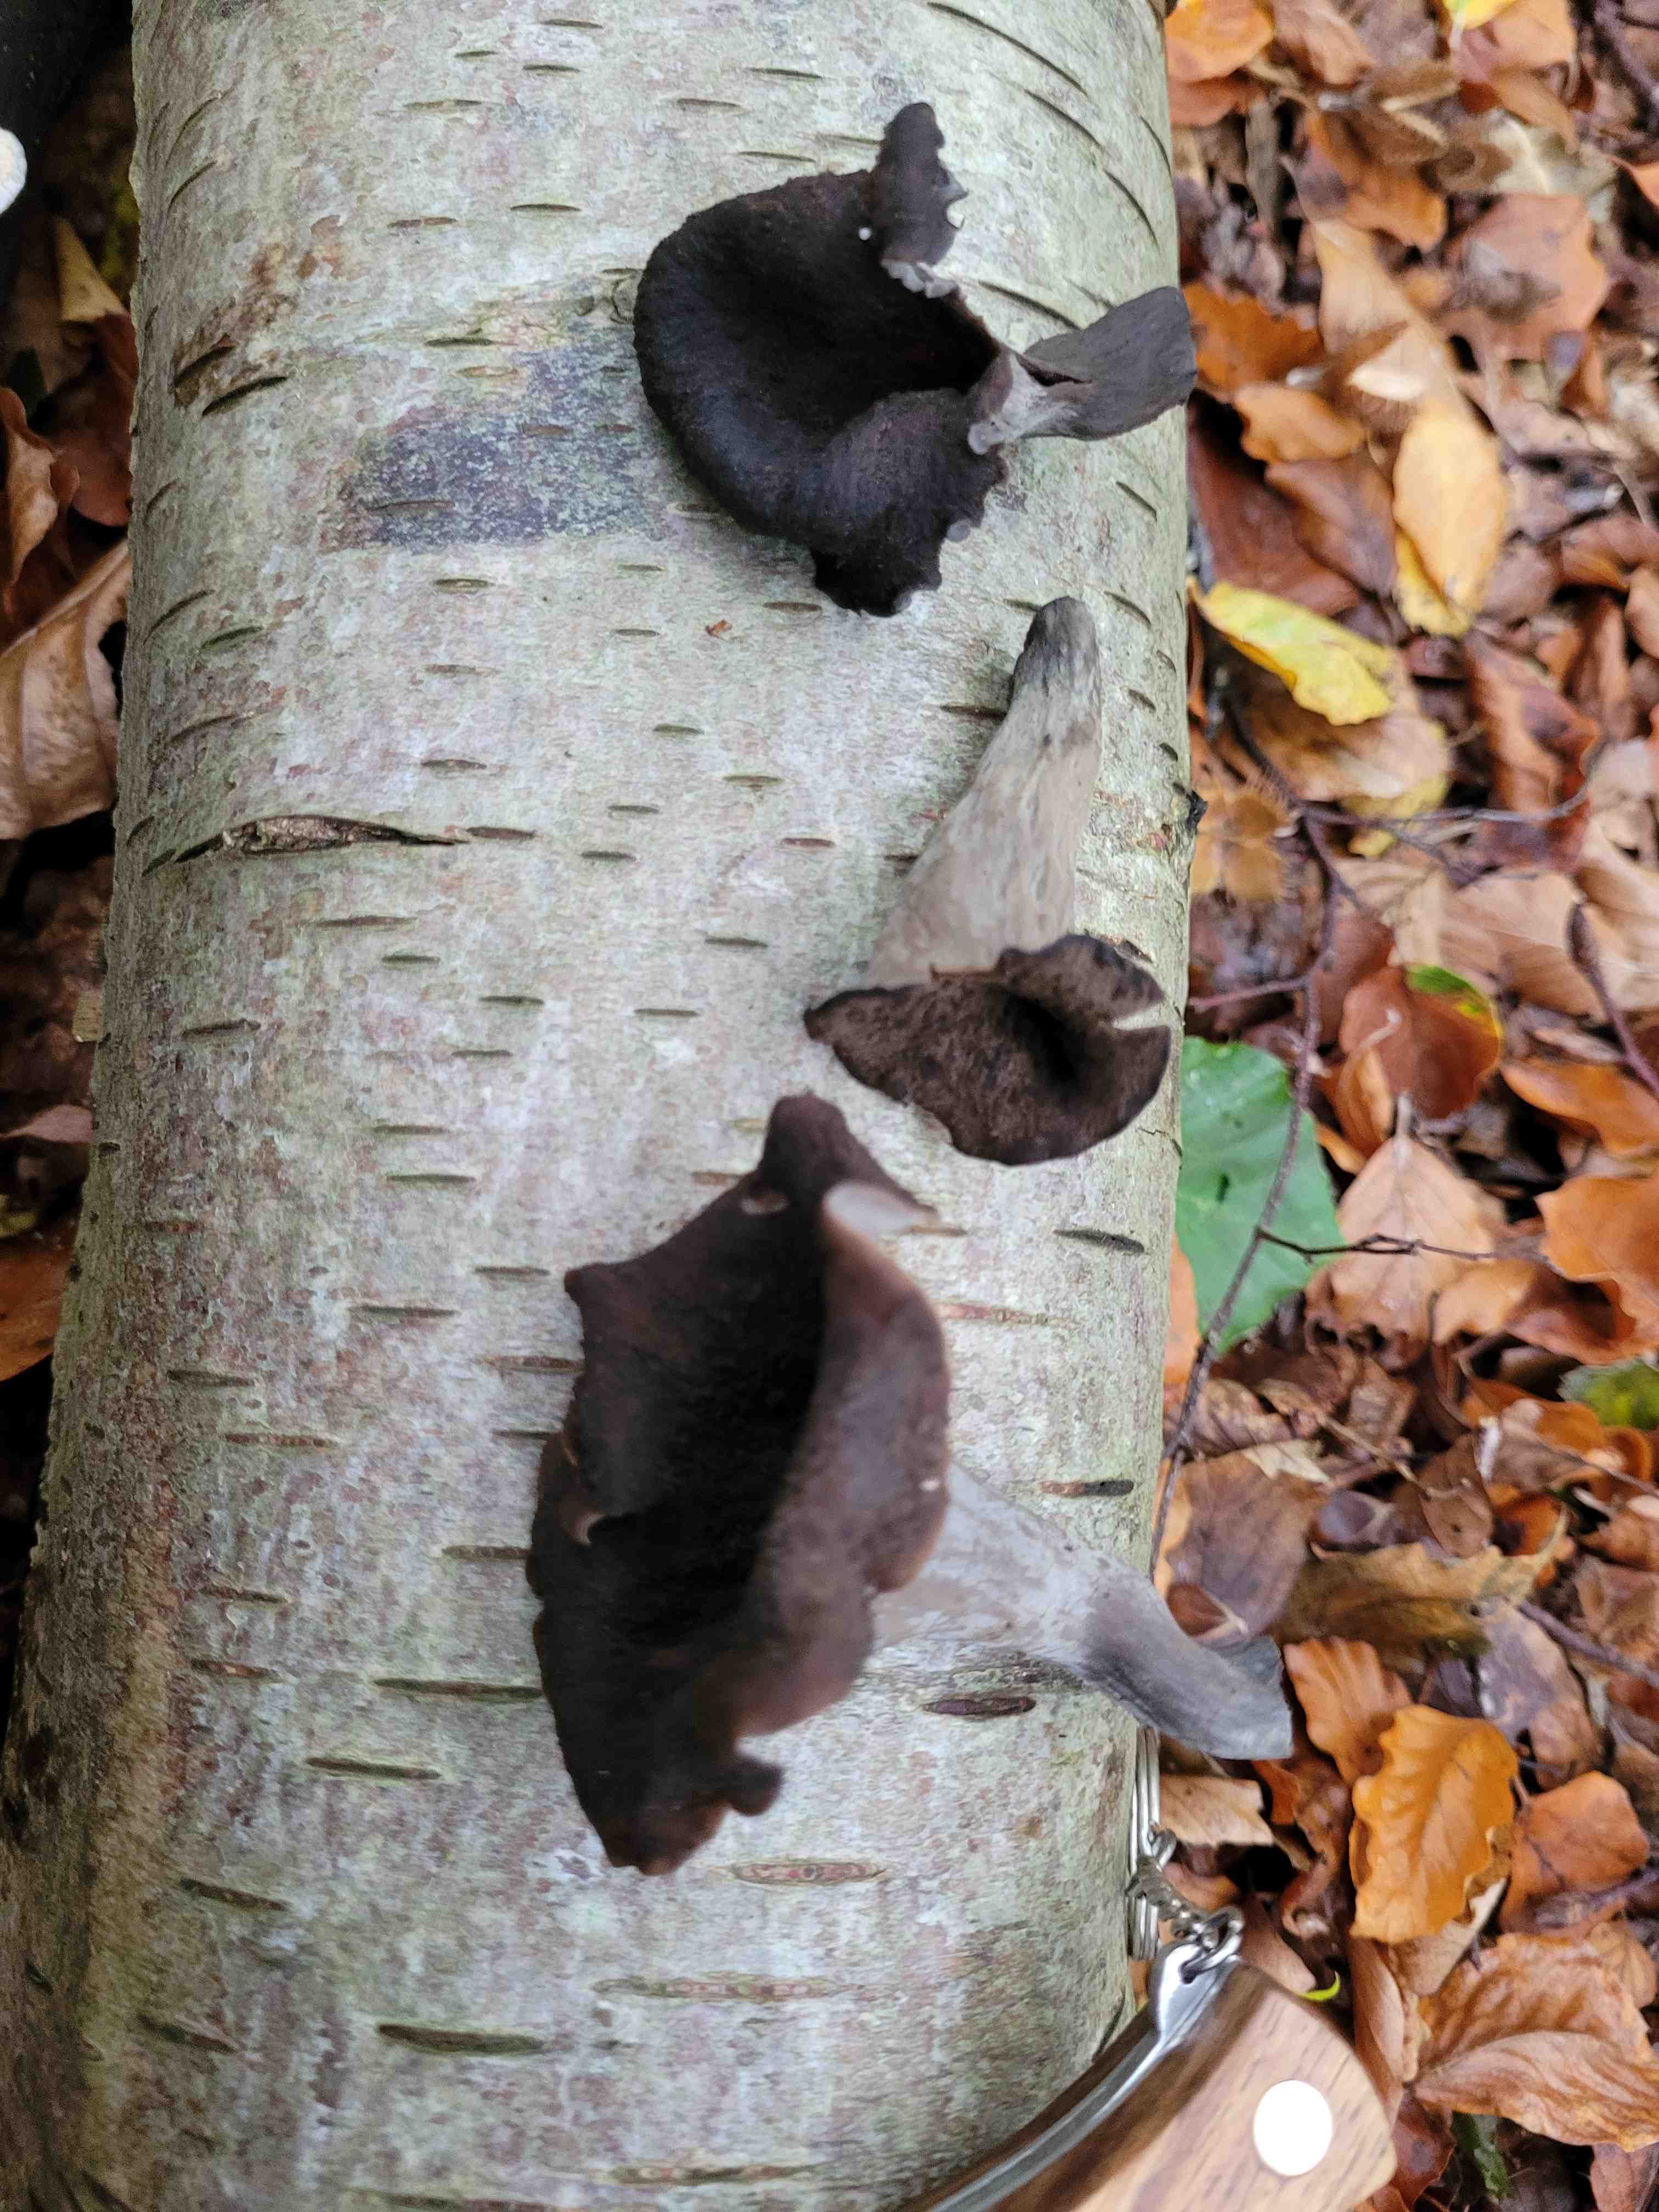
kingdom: Fungi
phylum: Basidiomycota
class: Agaricomycetes
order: Cantharellales
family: Hydnaceae
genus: Craterellus
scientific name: Craterellus cornucopioides
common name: trompetsvamp
